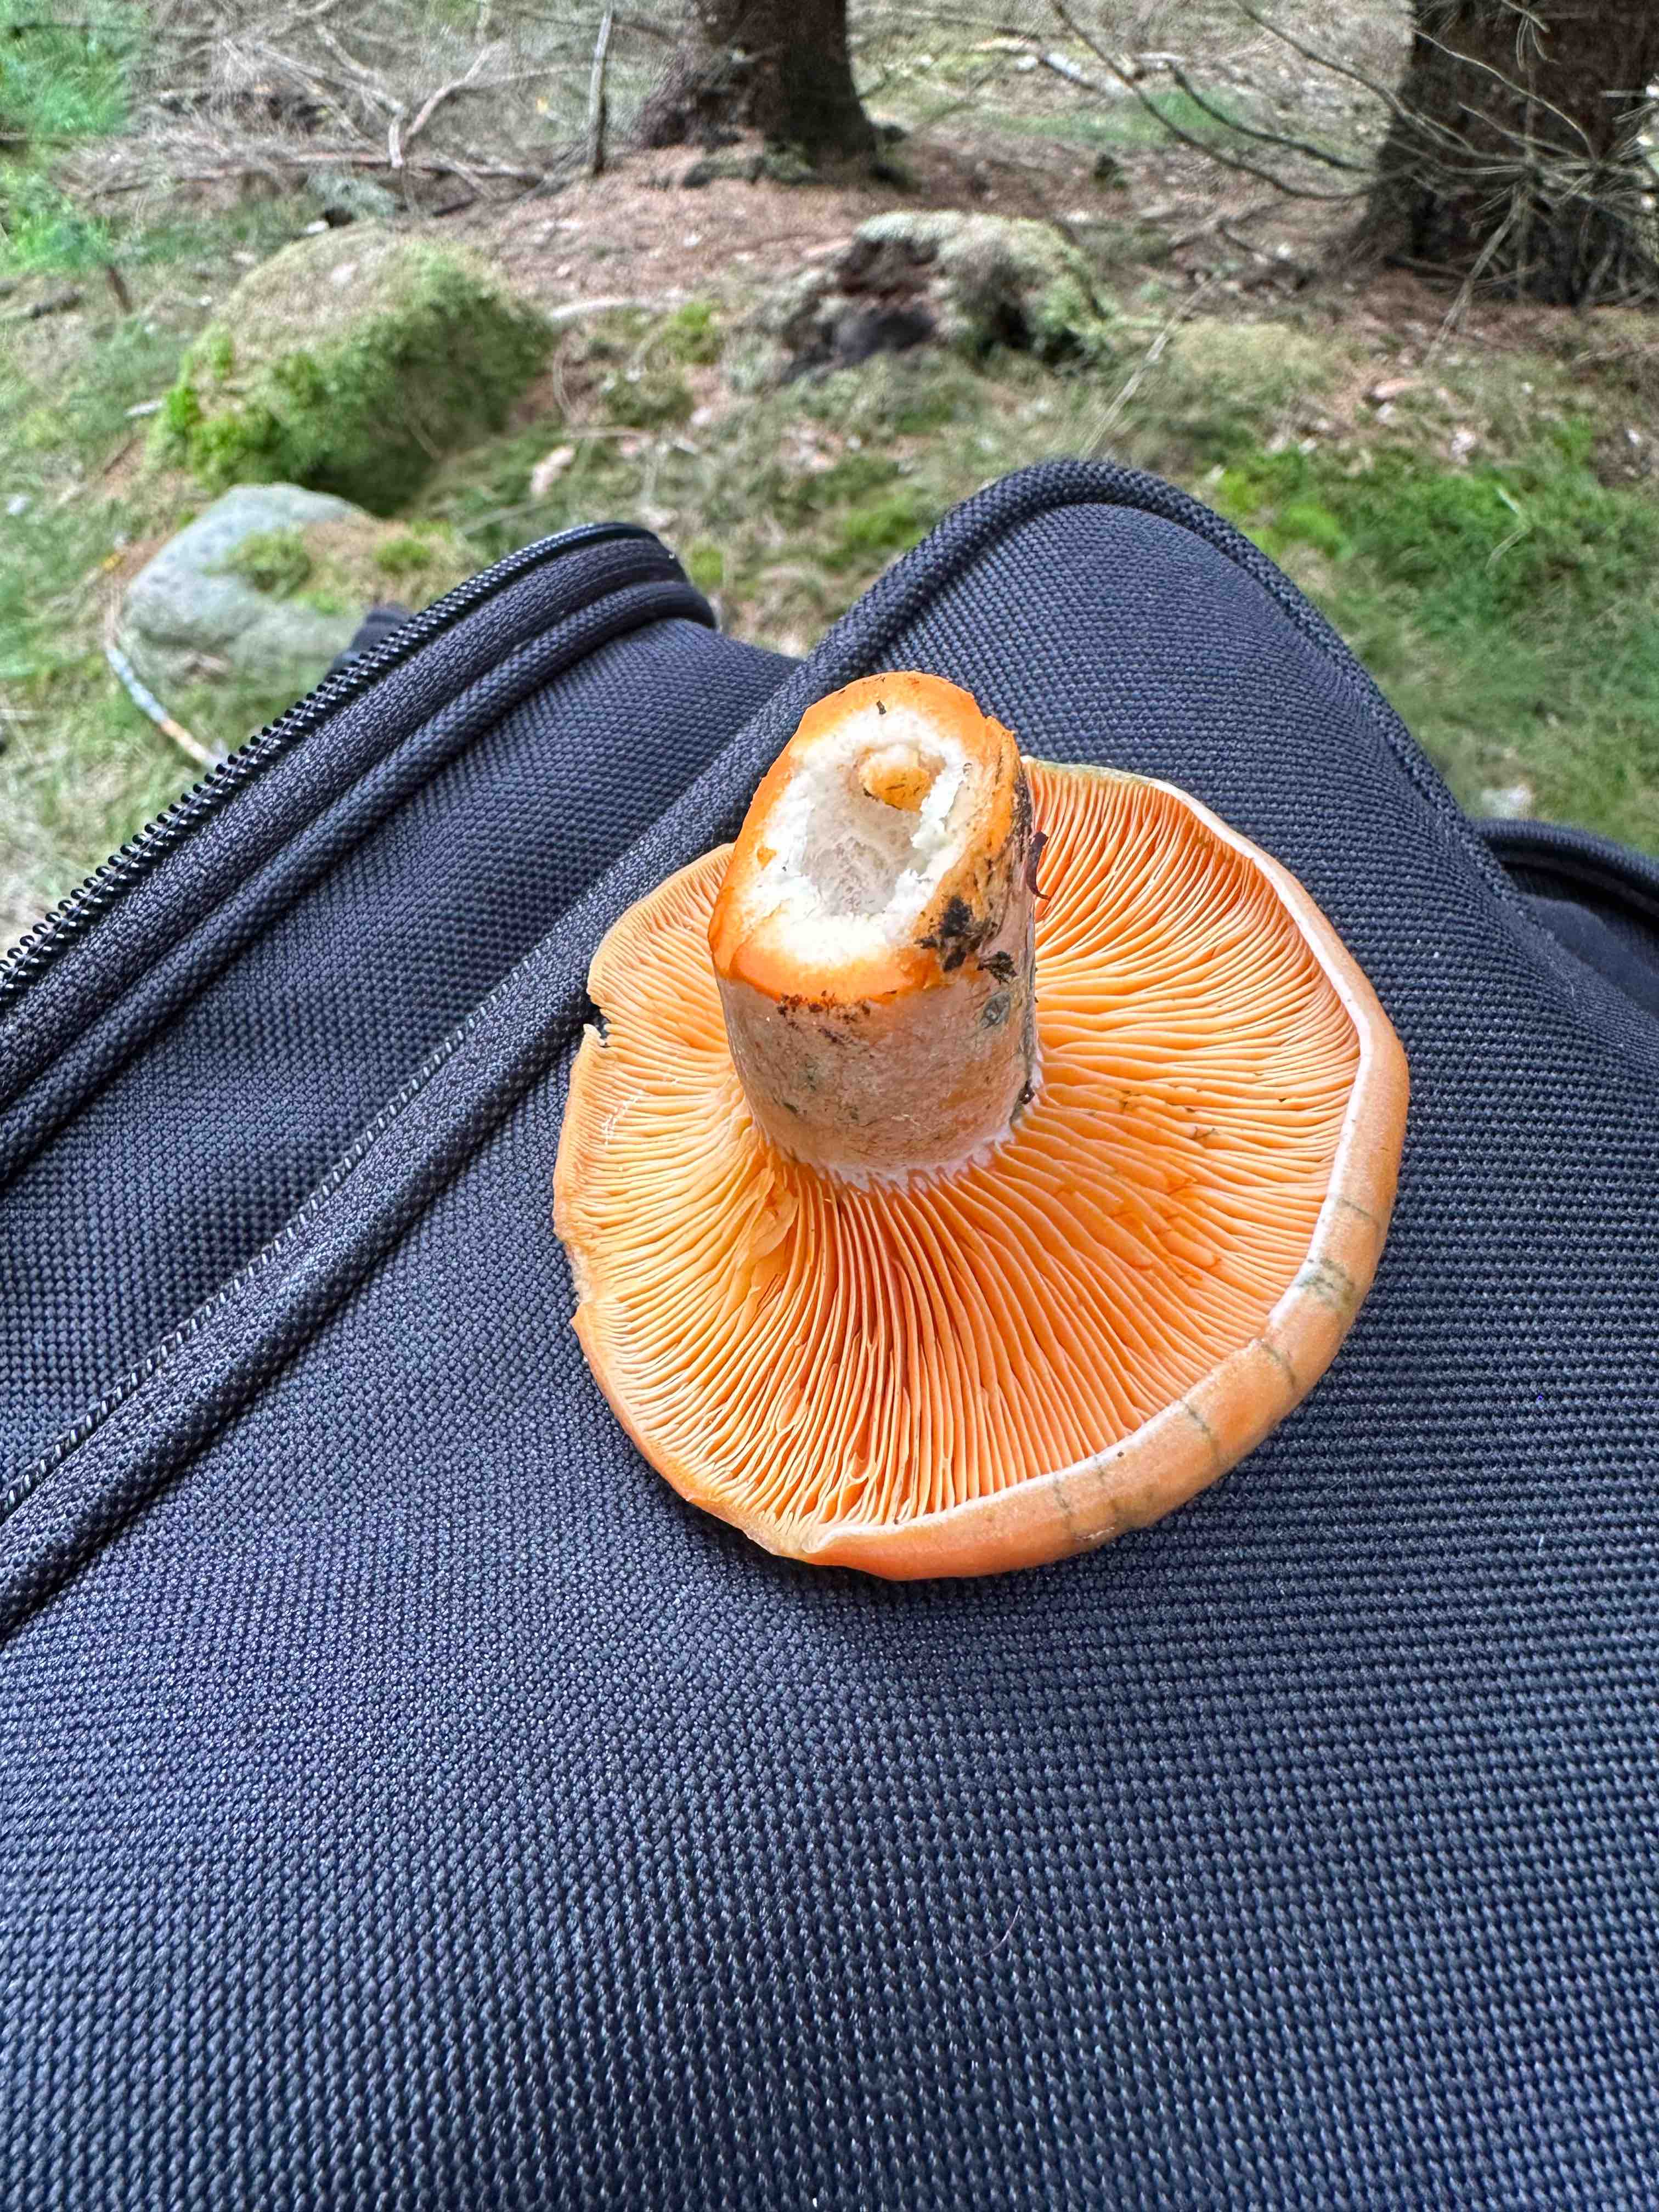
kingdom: Fungi
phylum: Basidiomycota
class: Agaricomycetes
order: Russulales
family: Russulaceae
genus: Lactarius
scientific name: Lactarius deterrimus
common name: gran-mælkehat
